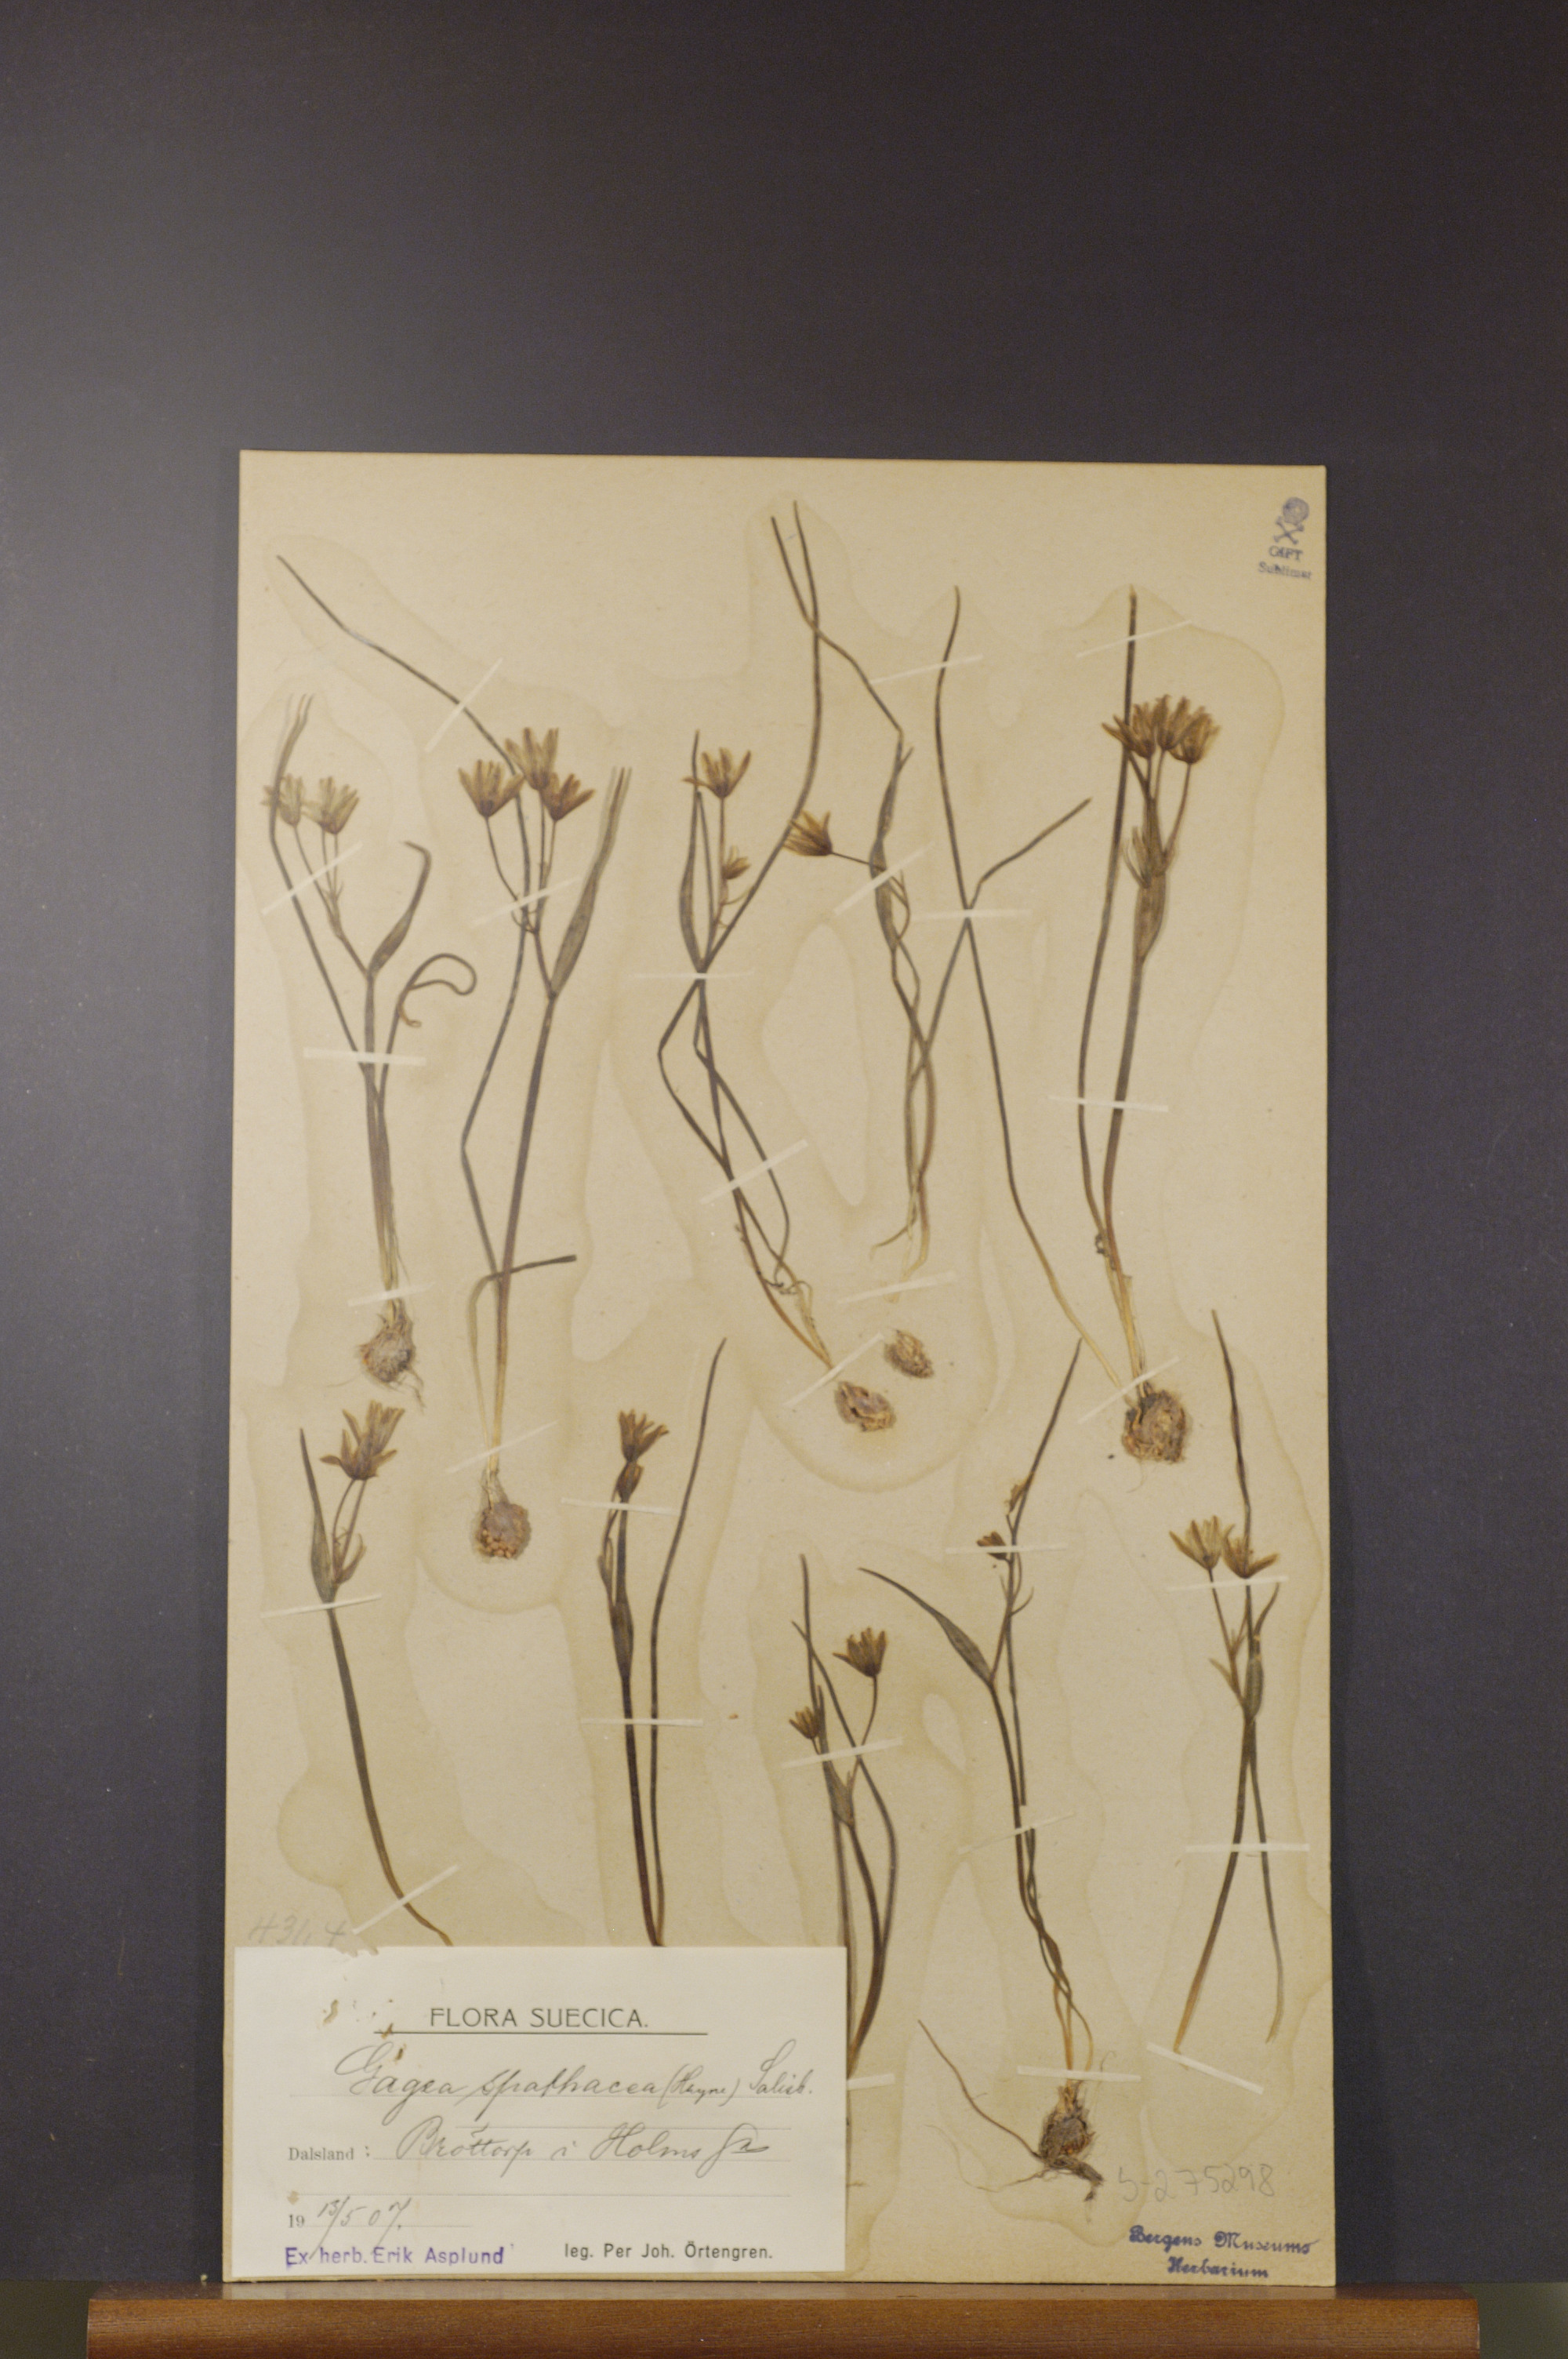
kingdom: Plantae
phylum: Tracheophyta
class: Liliopsida
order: Liliales
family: Liliaceae
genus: Gagea
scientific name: Gagea spathacea
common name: Belgian gagea
